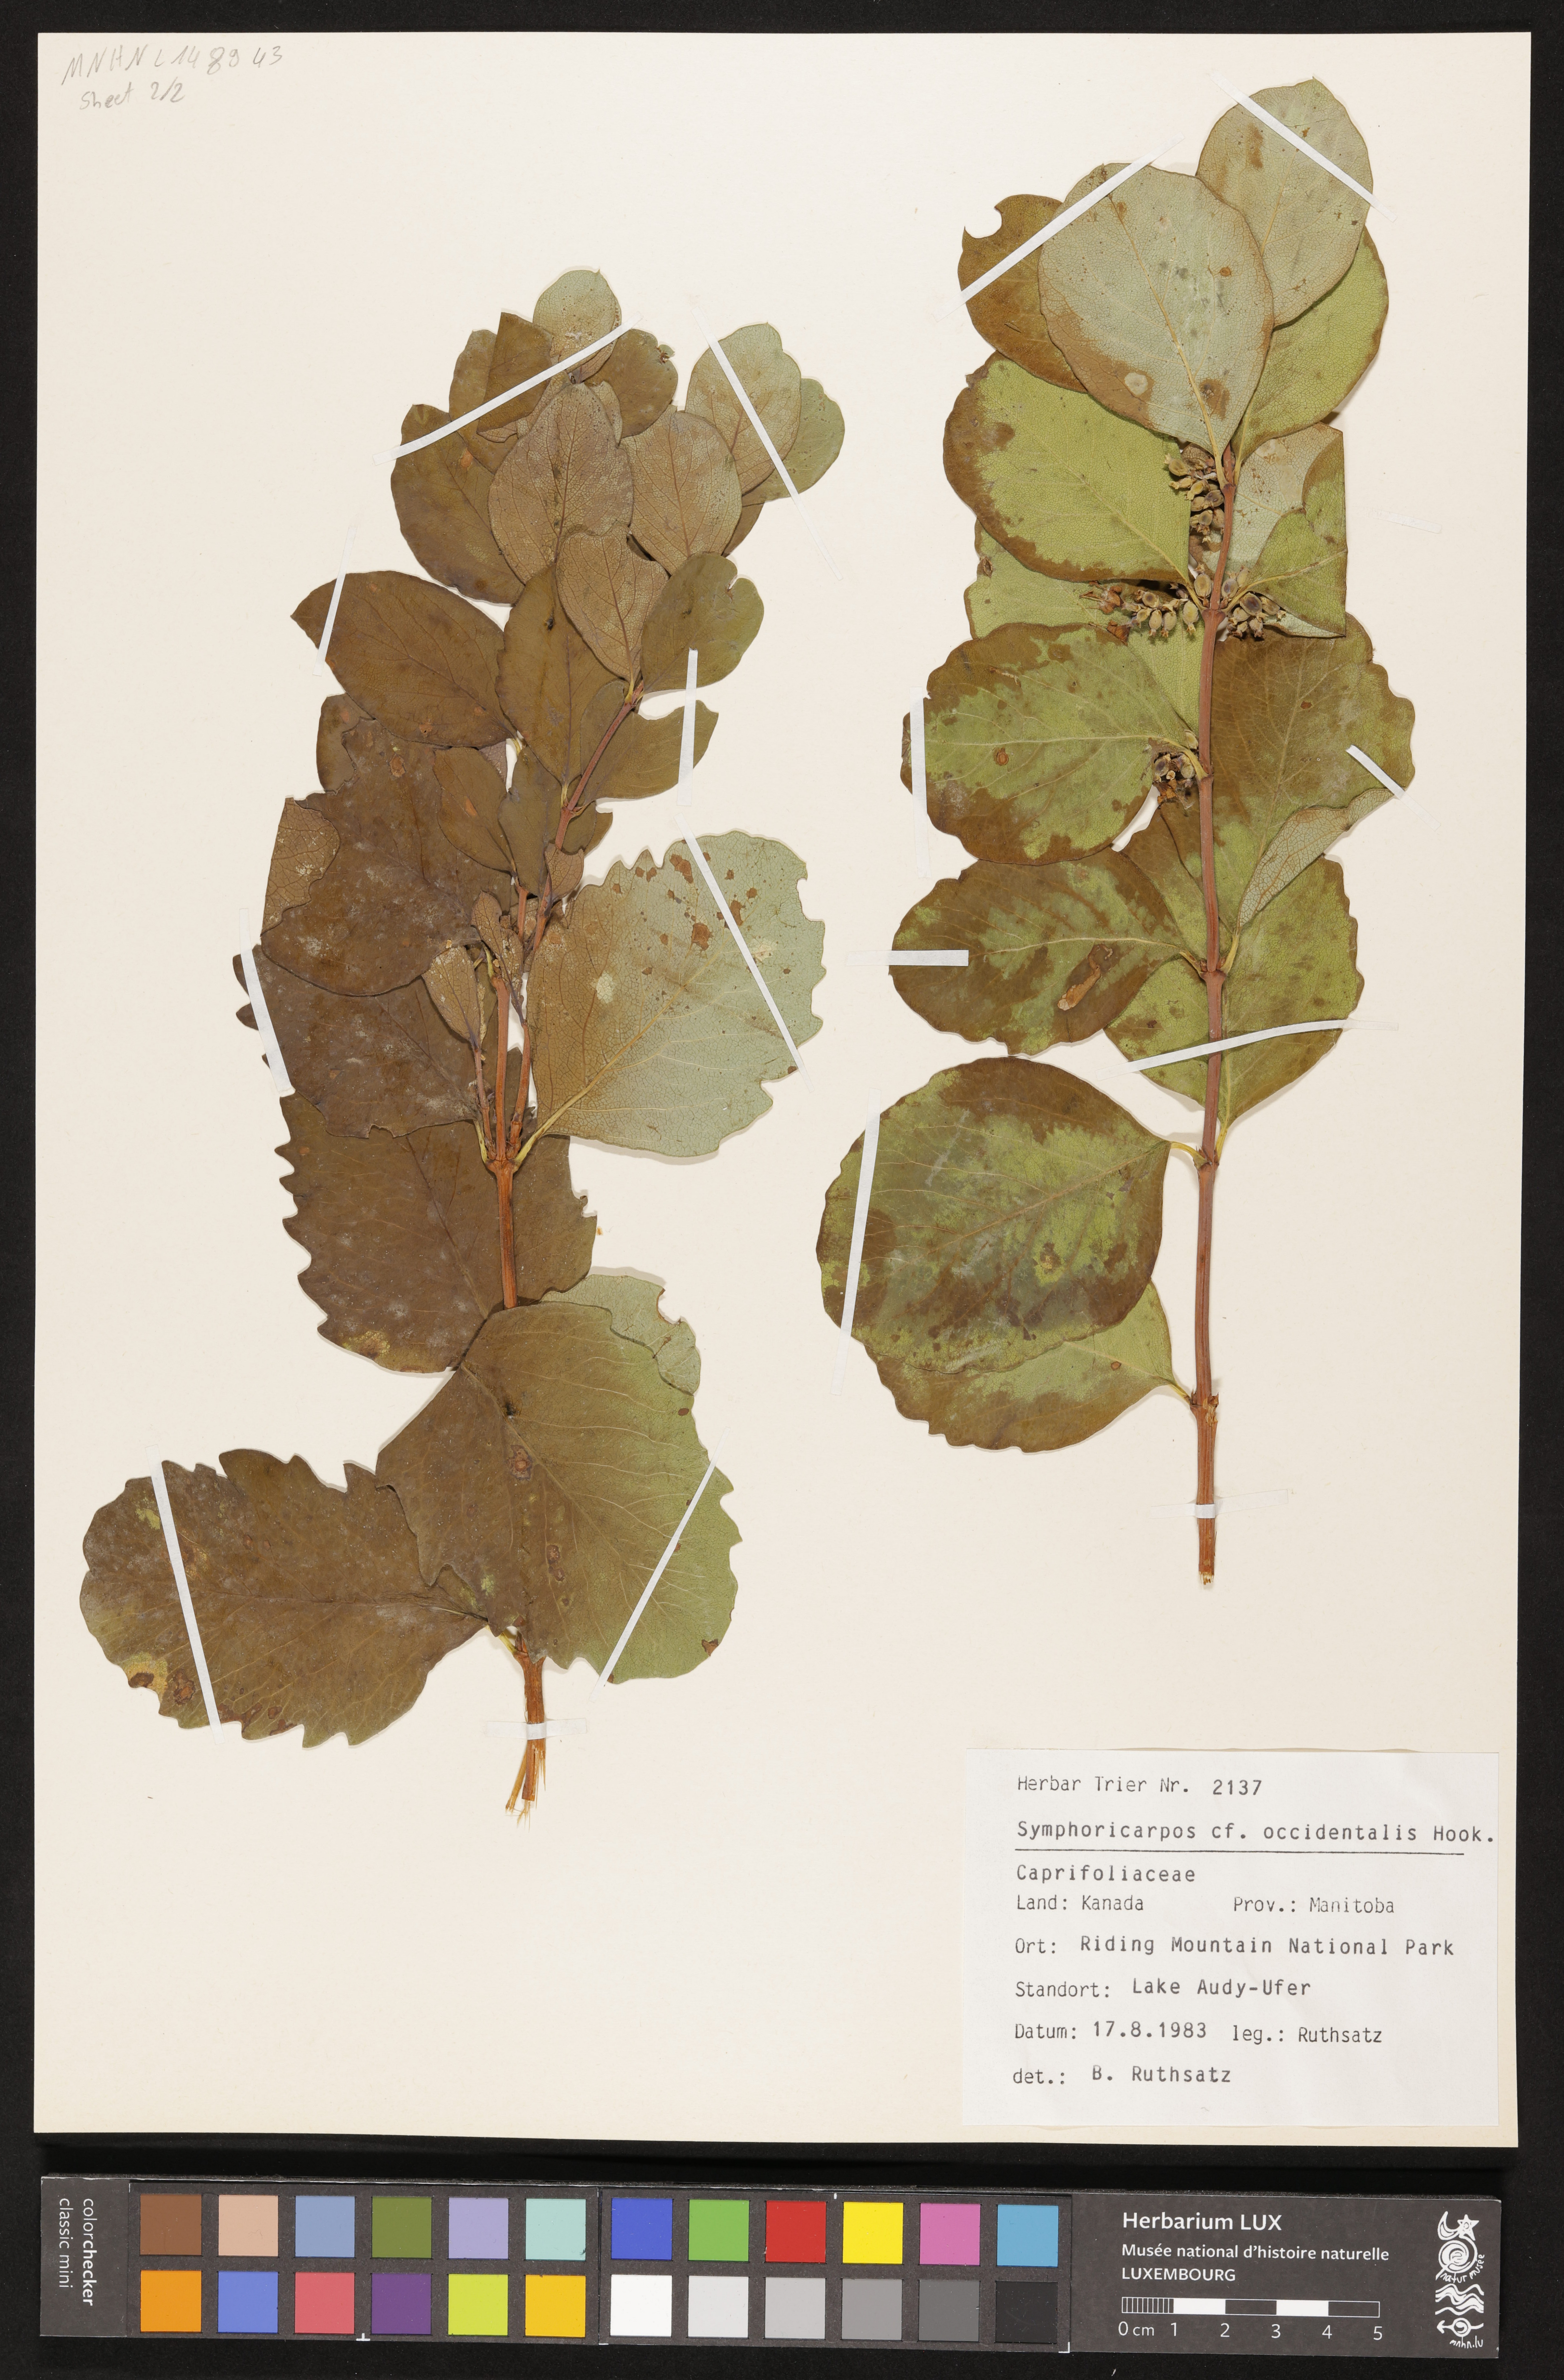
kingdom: Plantae
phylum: Tracheophyta
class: Magnoliopsida
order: Dipsacales
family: Caprifoliaceae
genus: Symphoricarpos
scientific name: Symphoricarpos occidentalis
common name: Wolfberry
